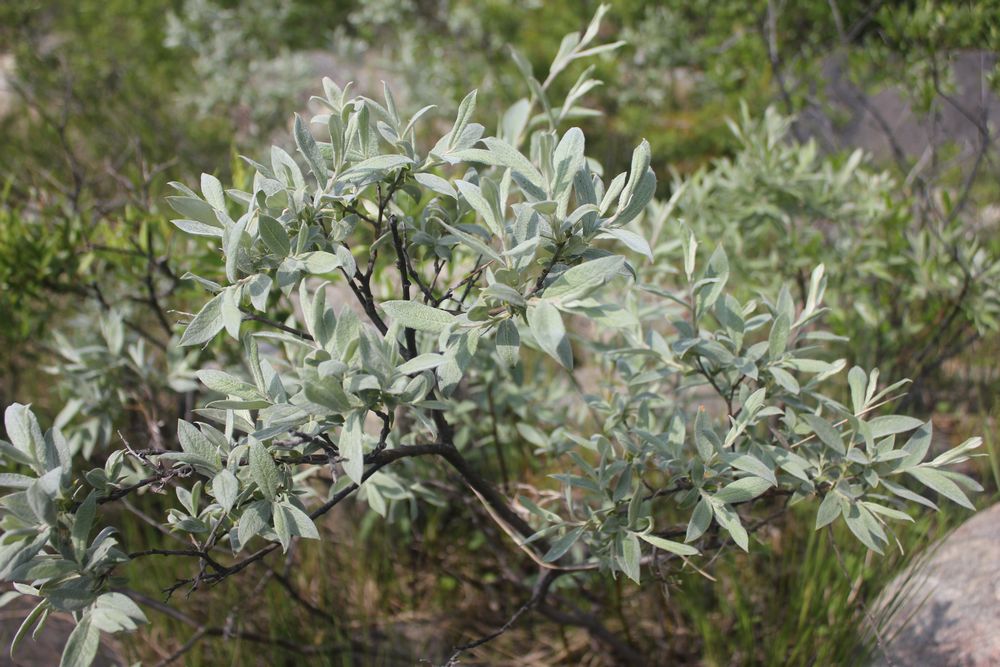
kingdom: Plantae
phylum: Tracheophyta
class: Magnoliopsida
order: Malpighiales
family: Salicaceae
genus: Salix
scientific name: Salix lapponum
